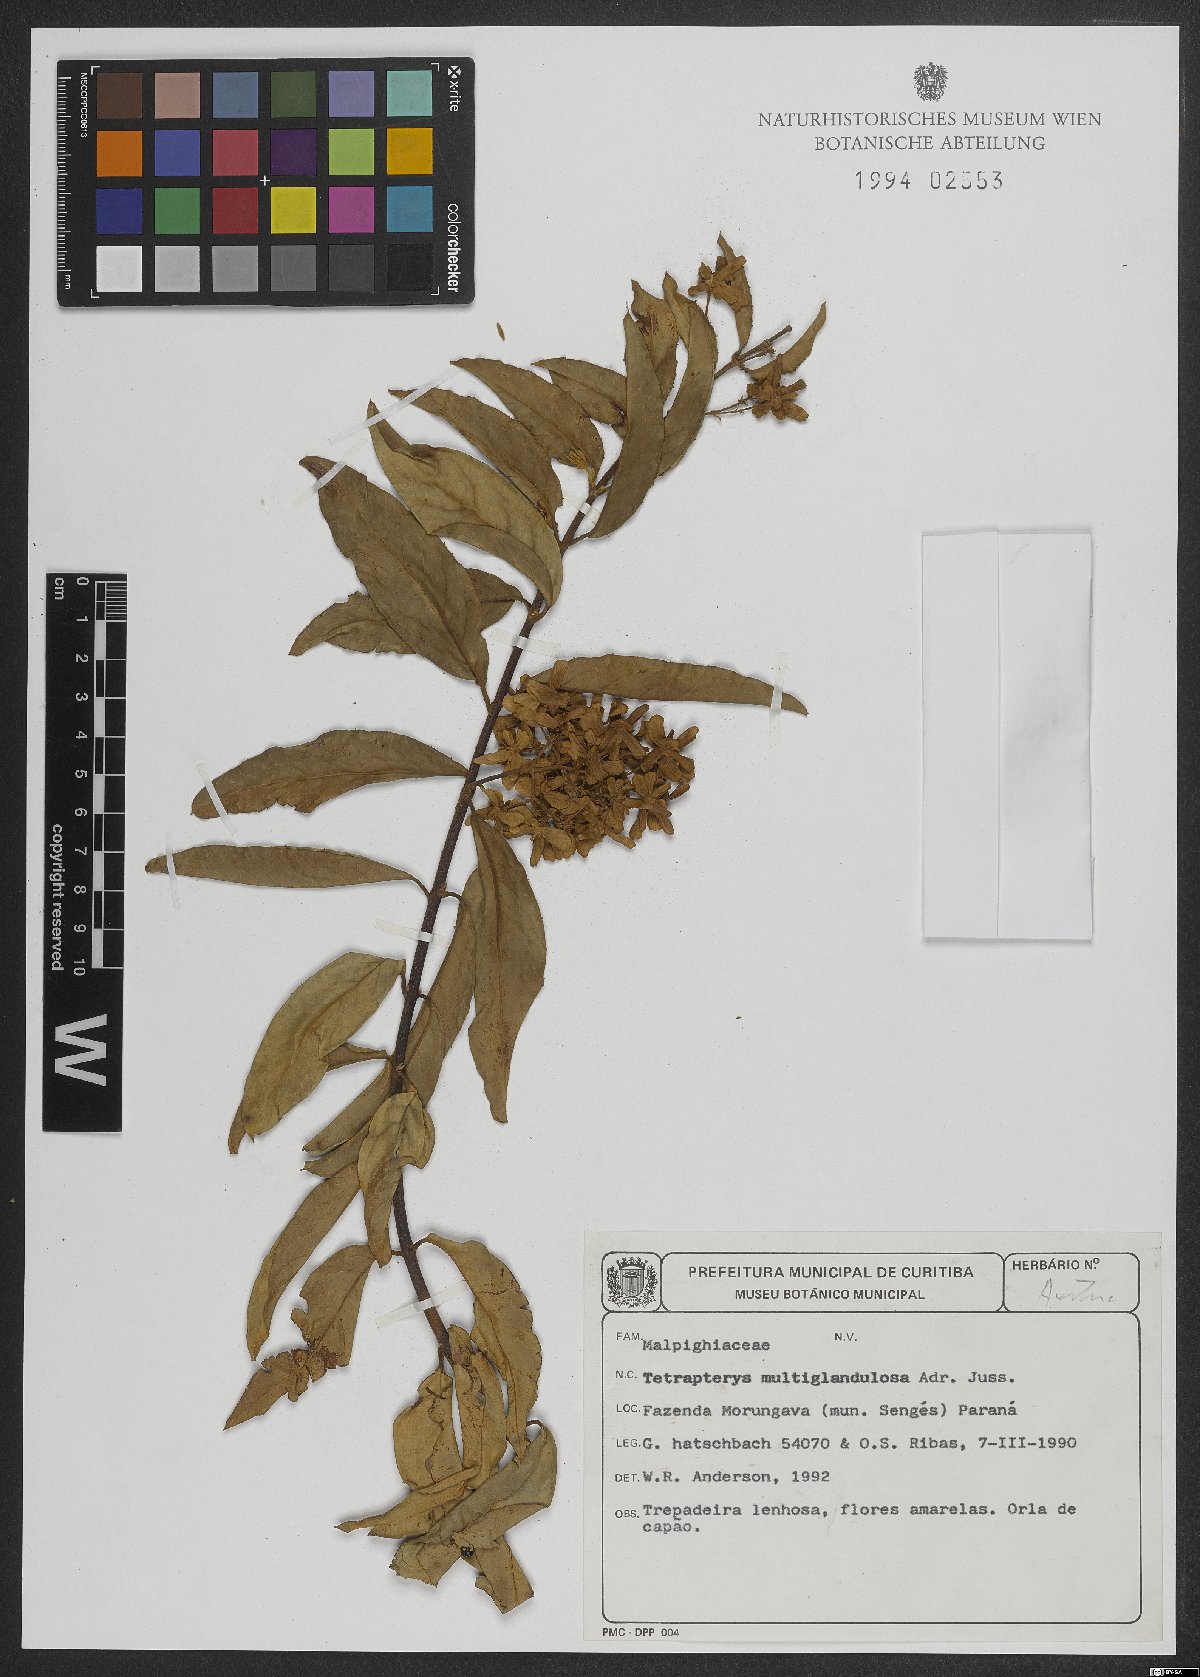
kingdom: Plantae
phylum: Tracheophyta
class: Magnoliopsida
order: Malpighiales
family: Malpighiaceae
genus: Niedenzuella
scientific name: Niedenzuella multiglandulosa
